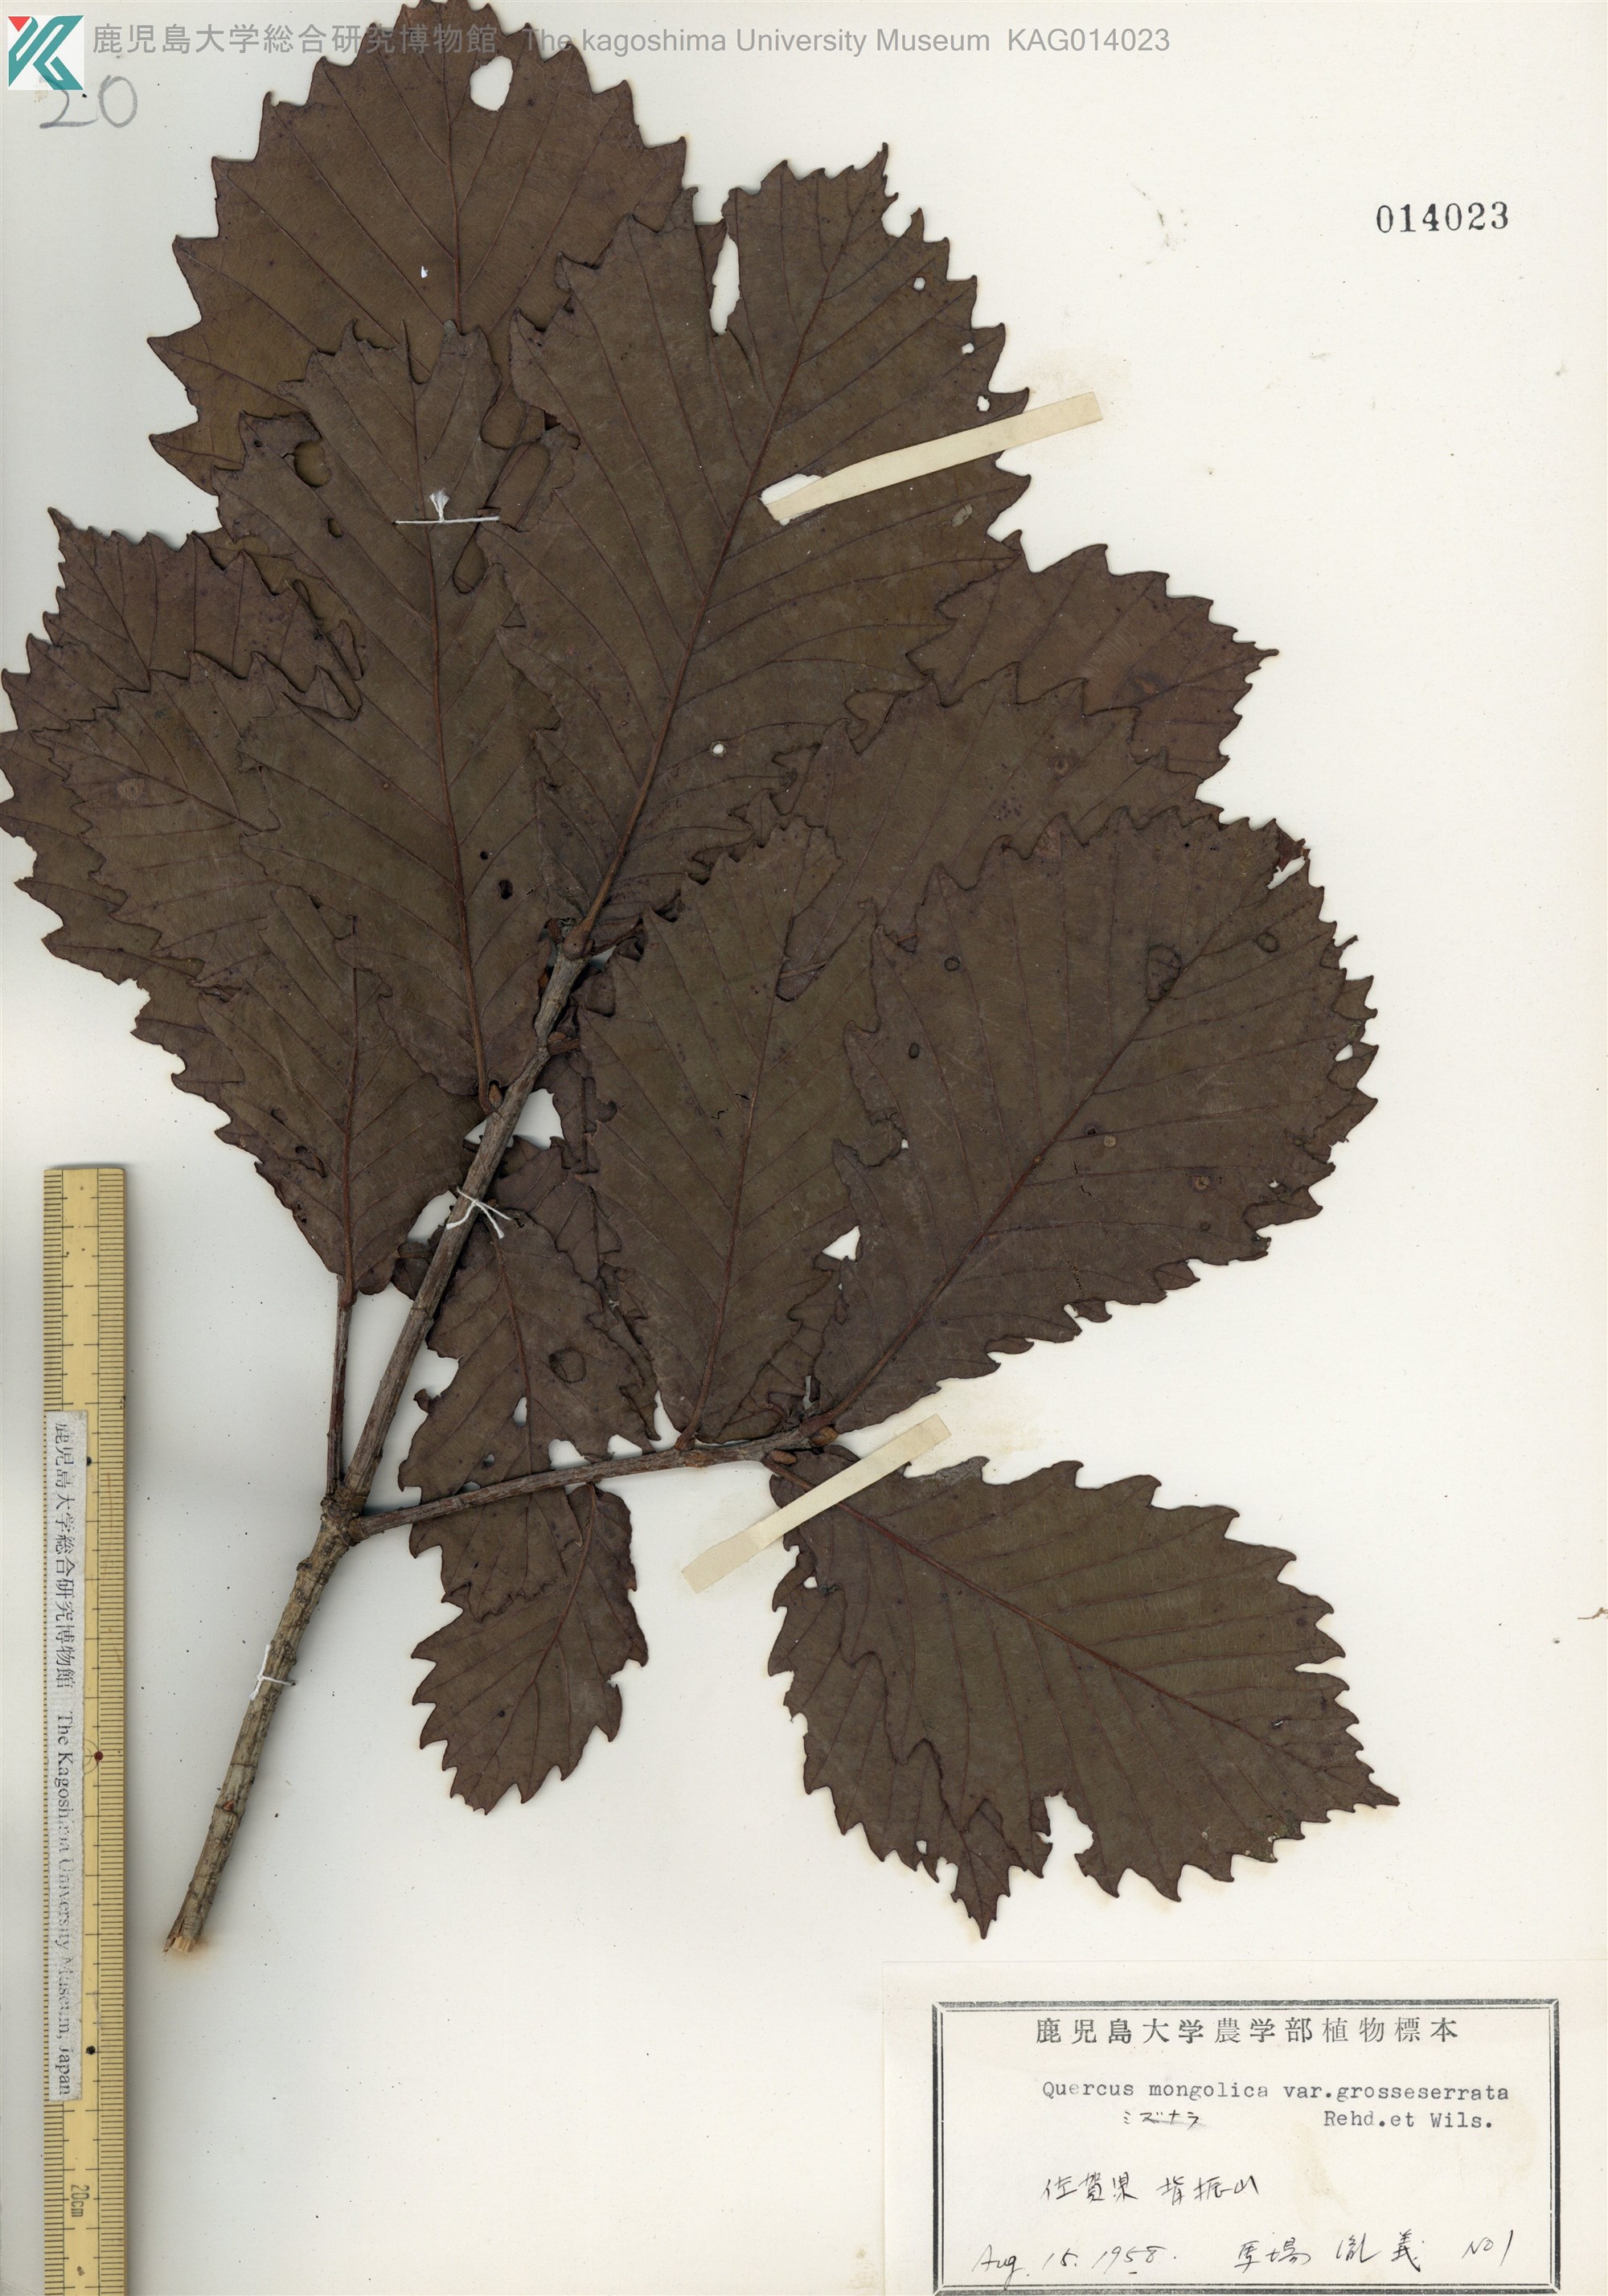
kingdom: Plantae
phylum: Tracheophyta
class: Magnoliopsida
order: Fagales
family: Fagaceae
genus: Quercus
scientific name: Quercus crispula
